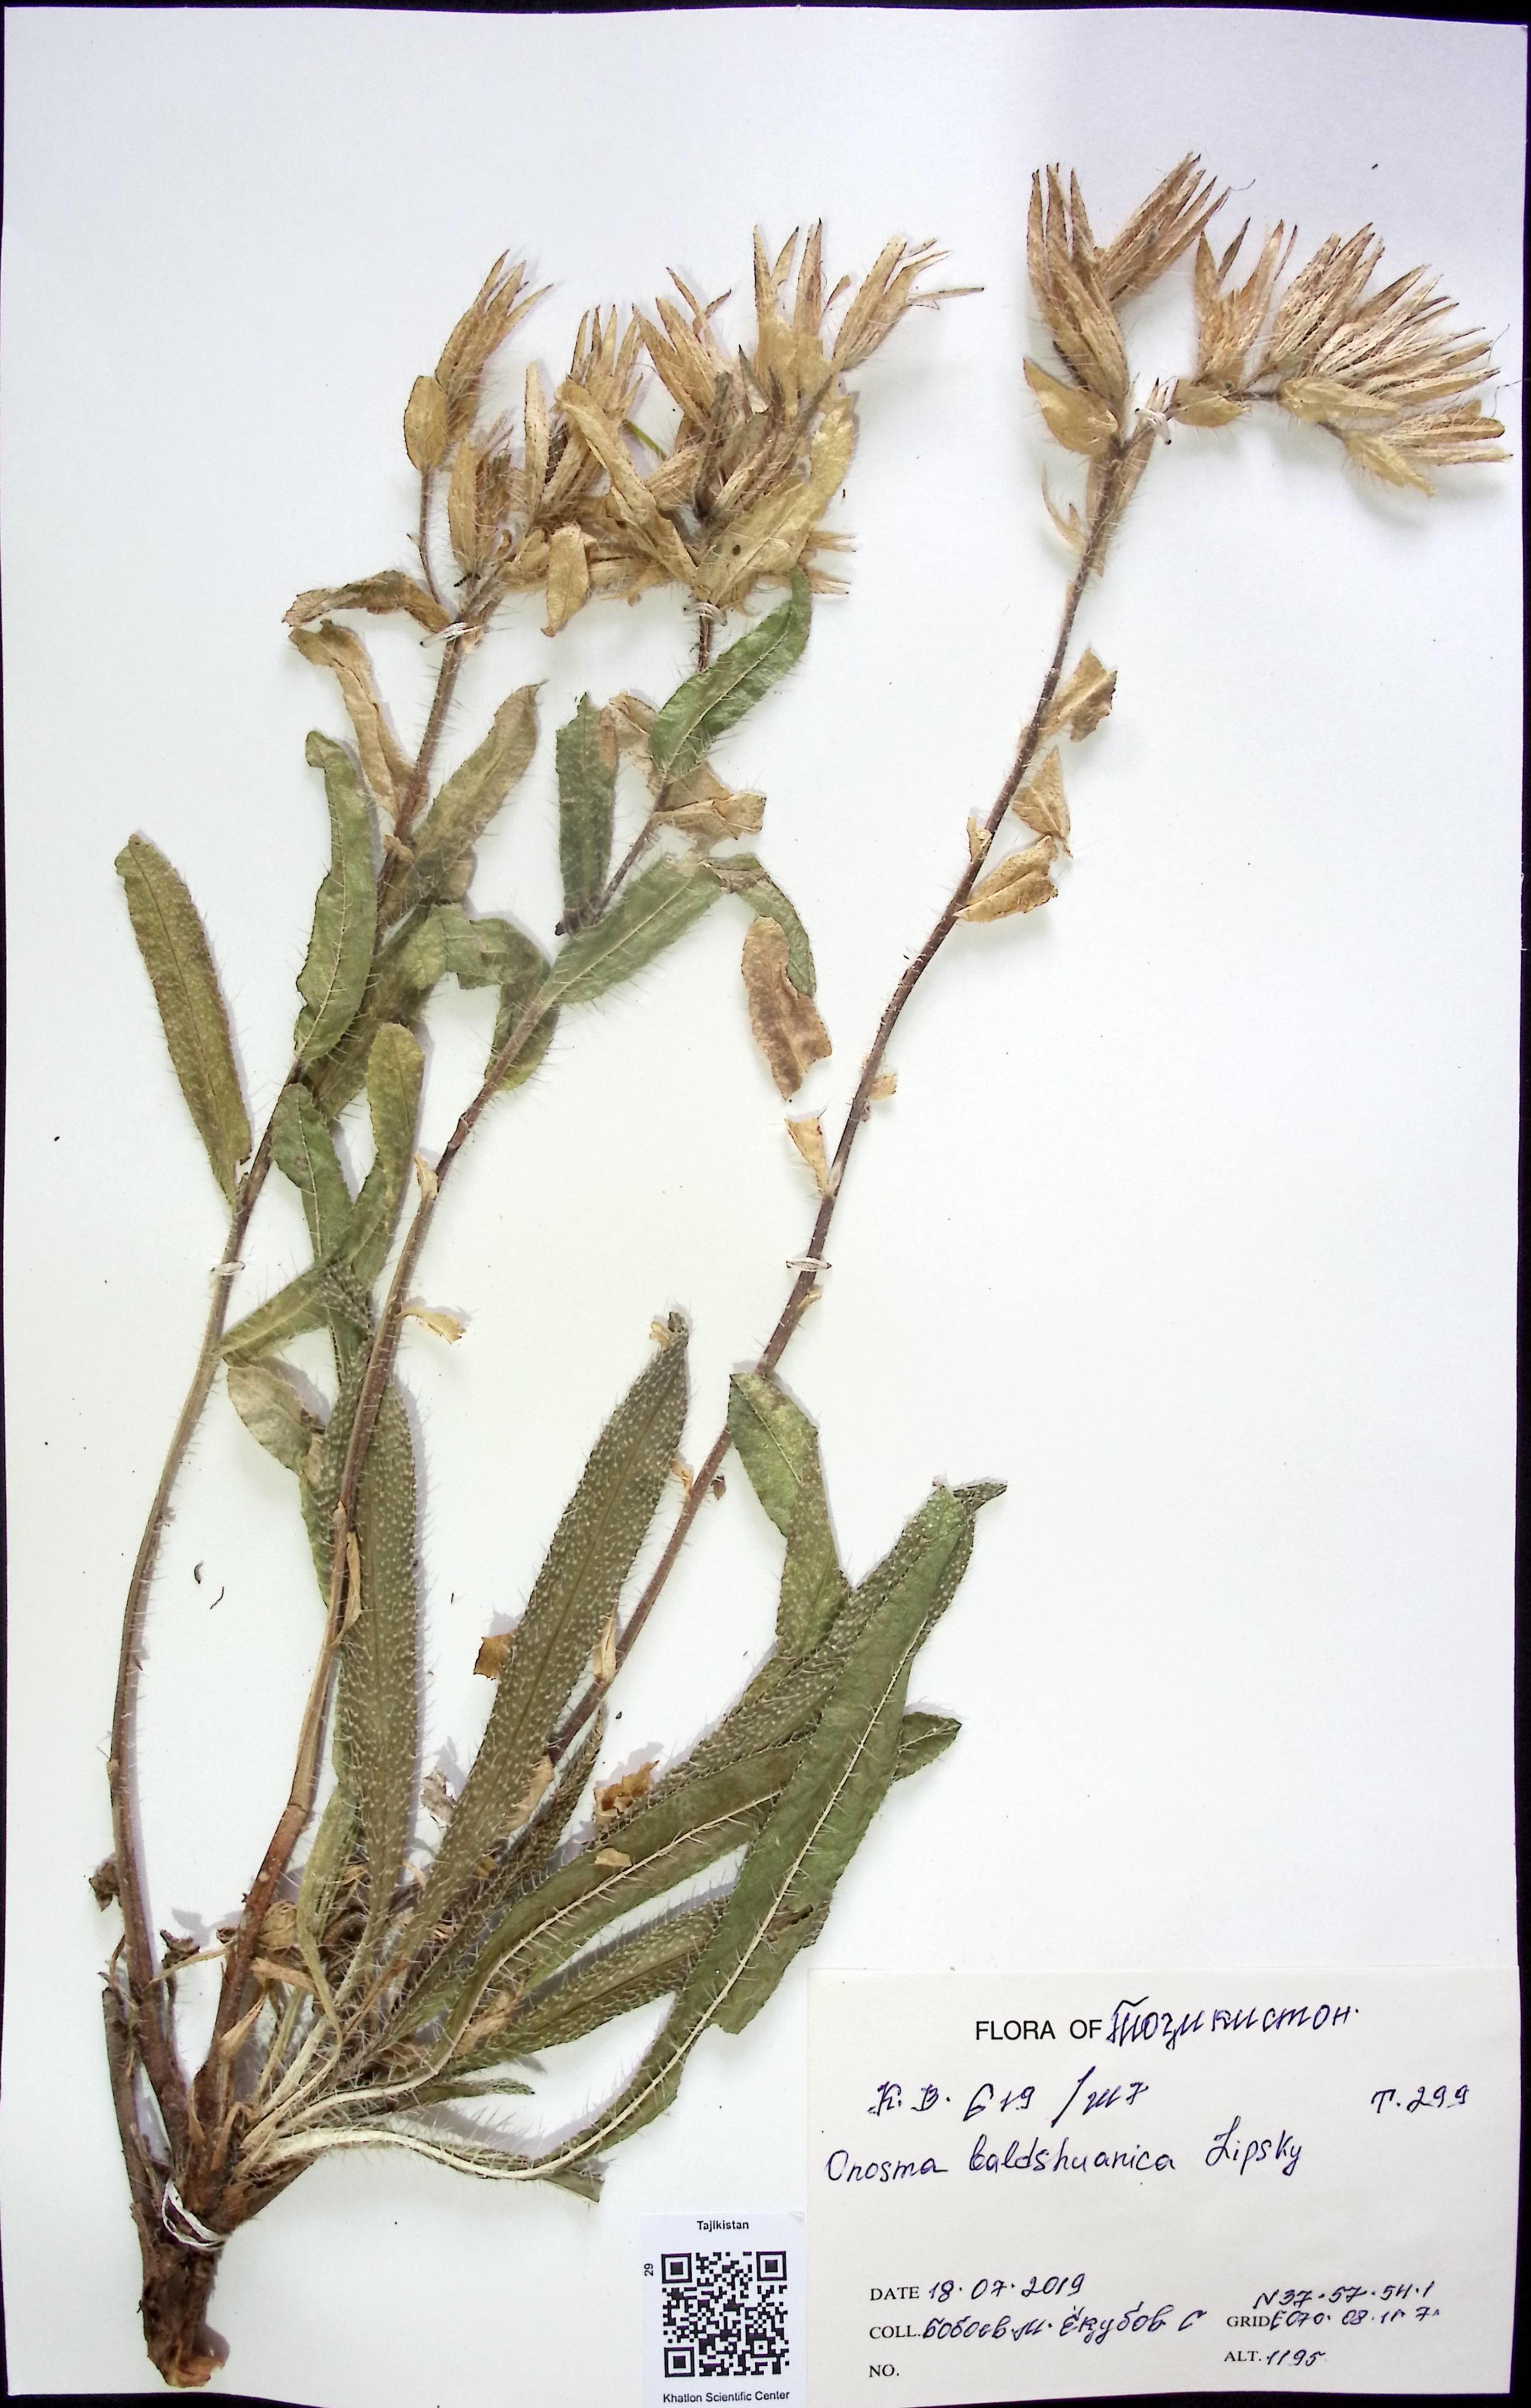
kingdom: Plantae
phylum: Tracheophyta
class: Magnoliopsida
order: Boraginales
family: Boraginaceae
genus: Onosma
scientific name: Onosma baldshuanica
